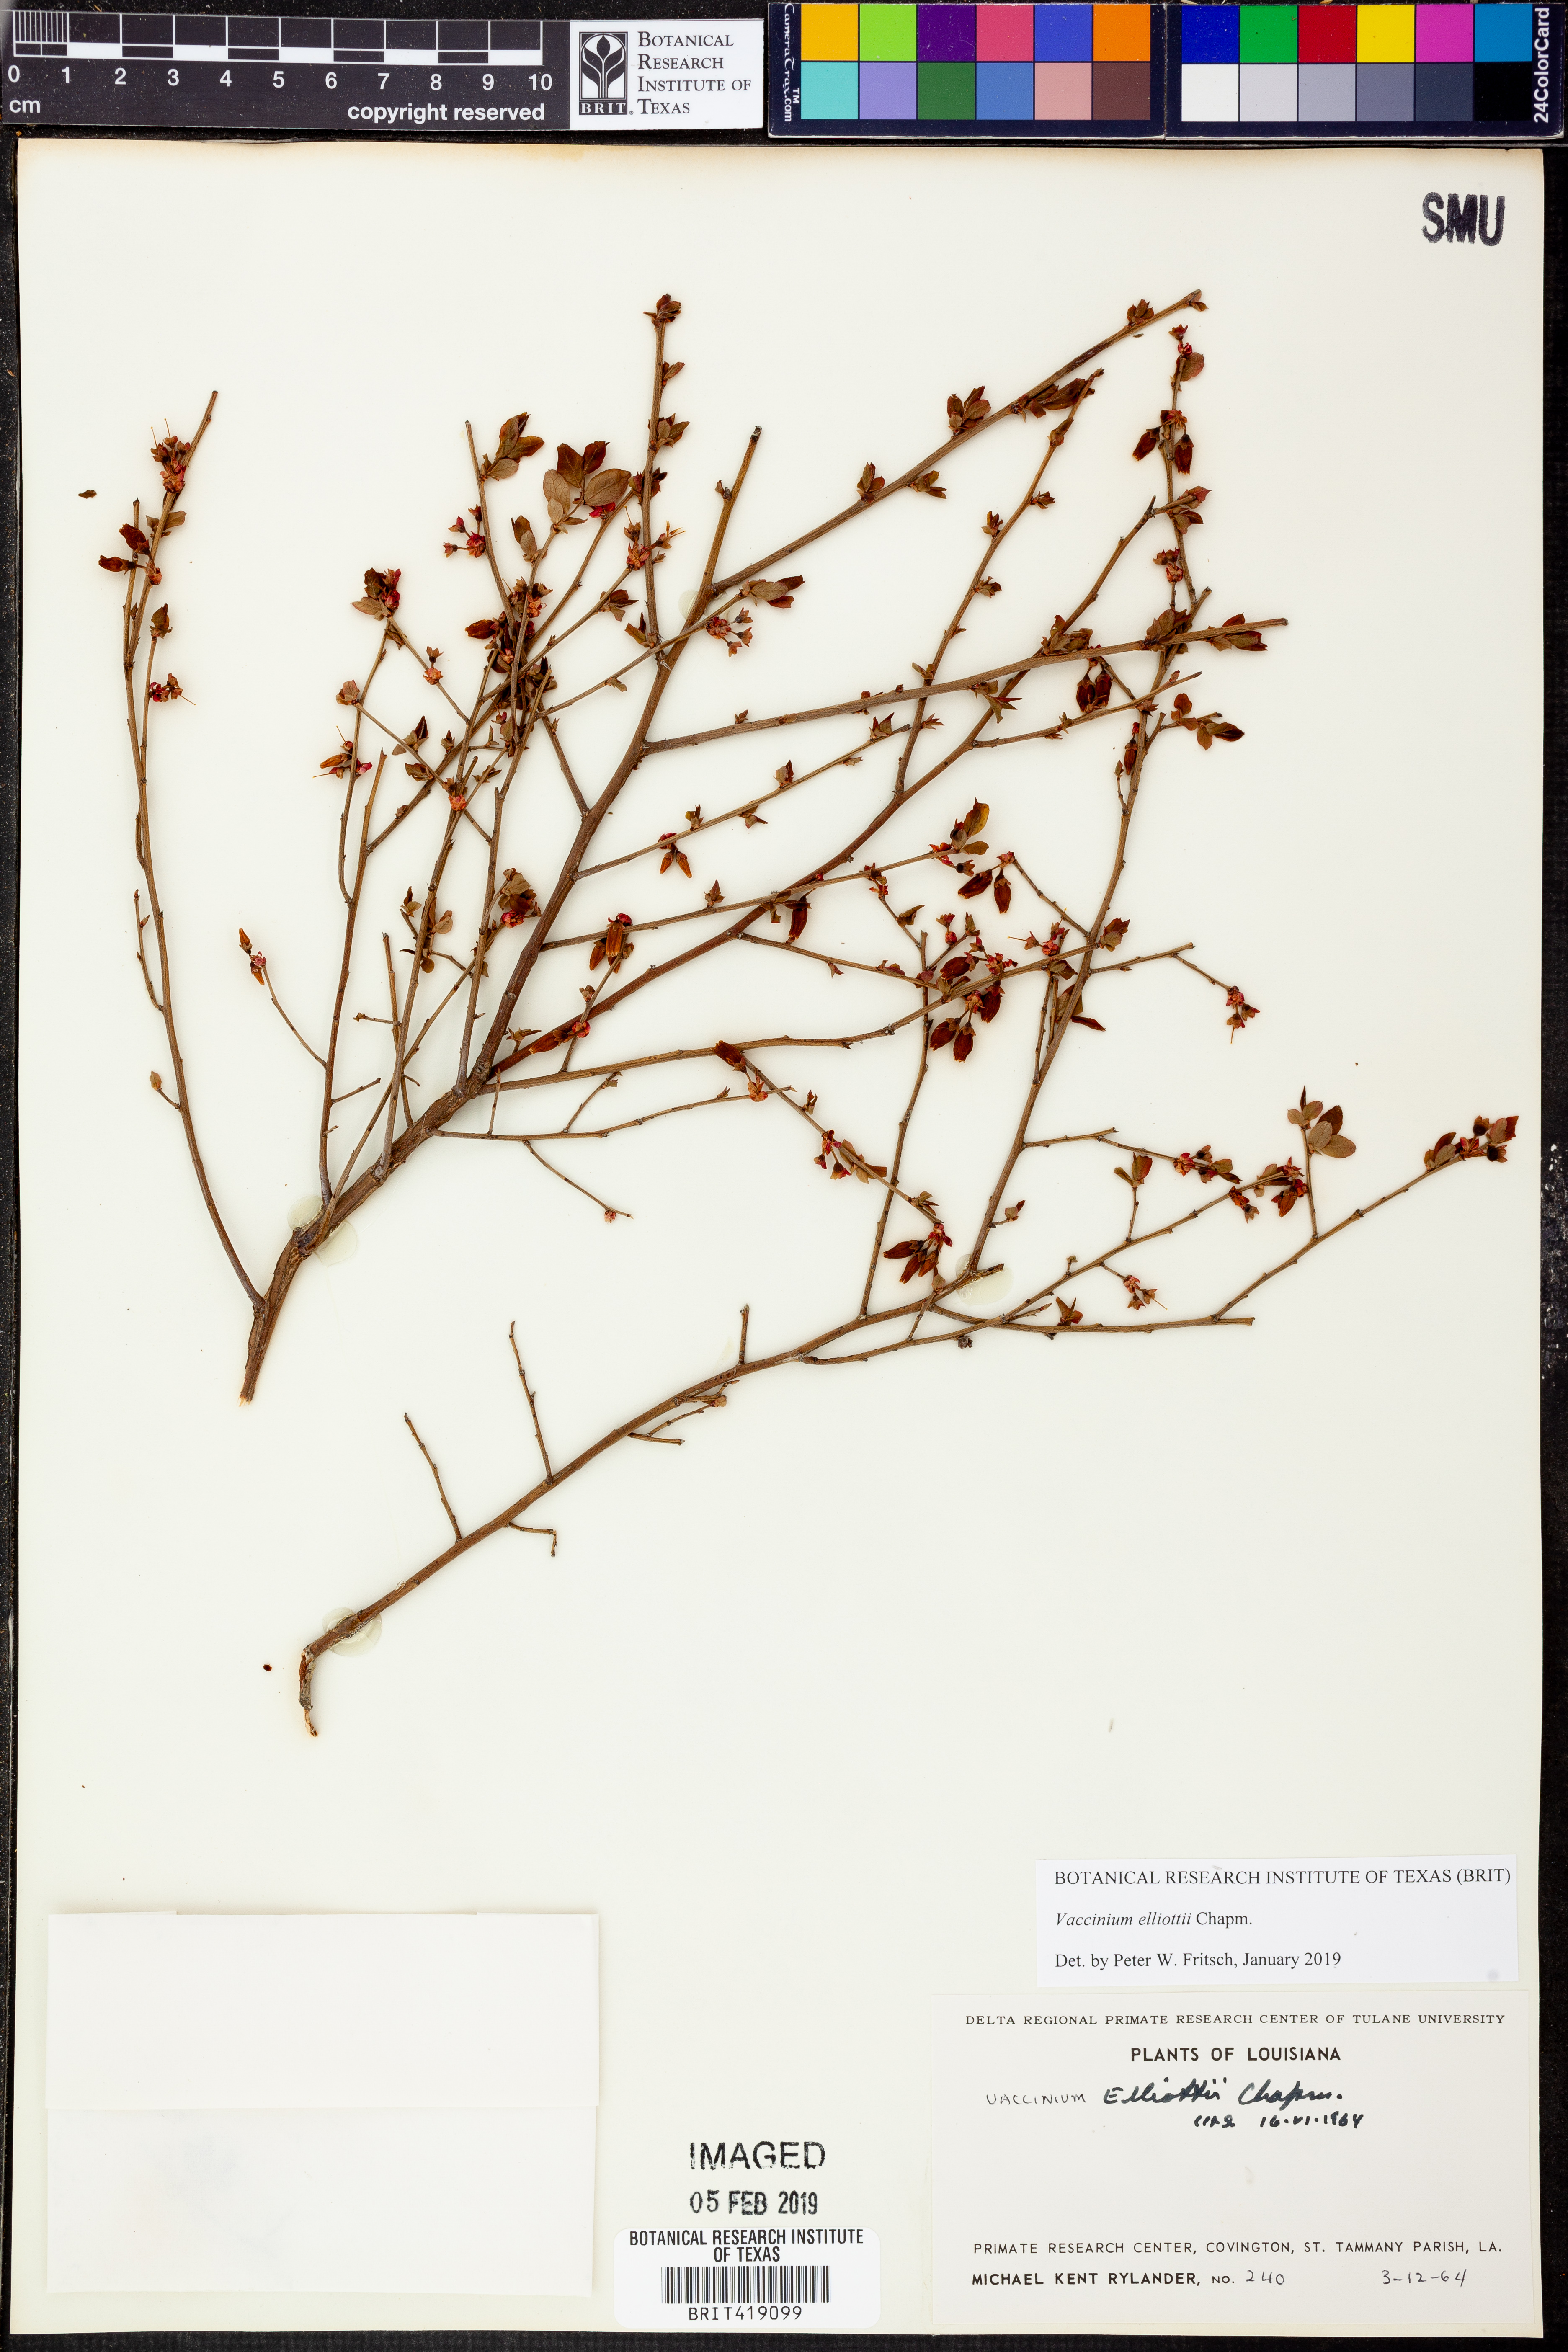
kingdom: Plantae
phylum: Tracheophyta
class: Magnoliopsida
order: Ericales
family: Ericaceae
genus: Vaccinium
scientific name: Vaccinium corymbosum
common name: Blueberry
